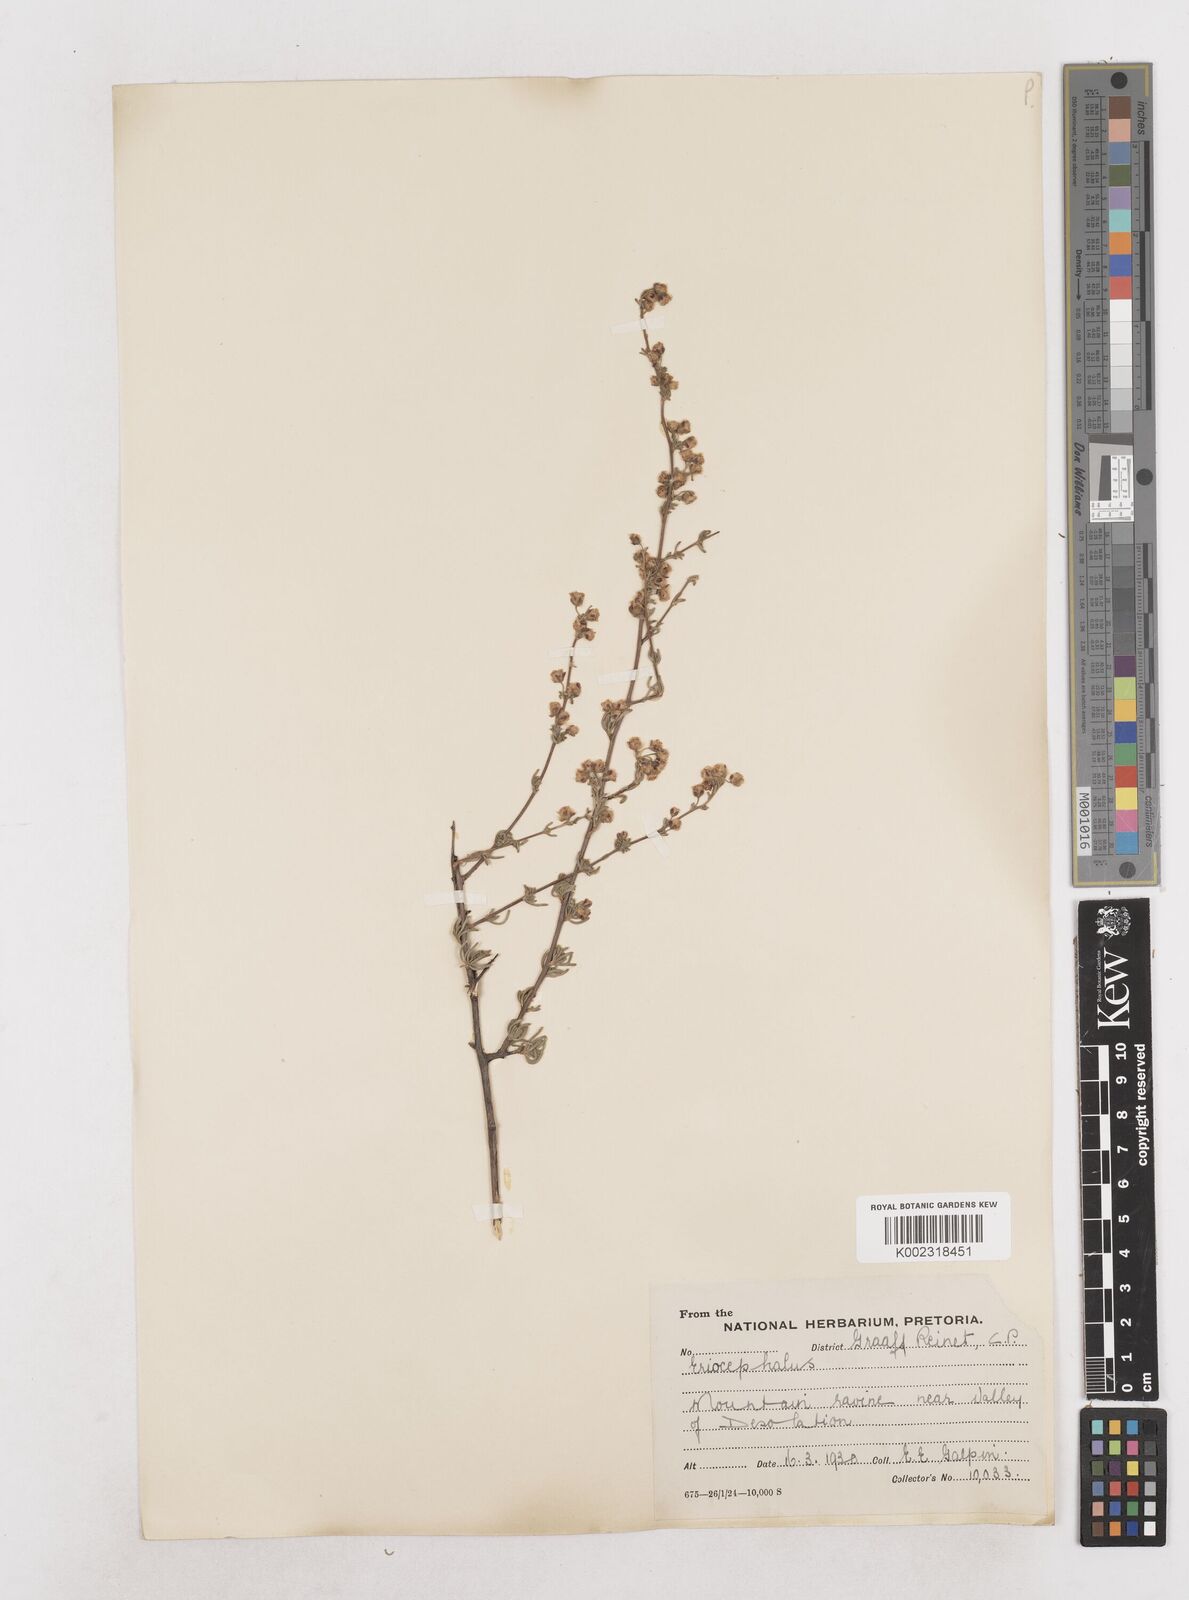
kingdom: Plantae
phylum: Tracheophyta
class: Magnoliopsida
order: Asterales
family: Asteraceae
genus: Eriocephalus
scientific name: Eriocephalus
